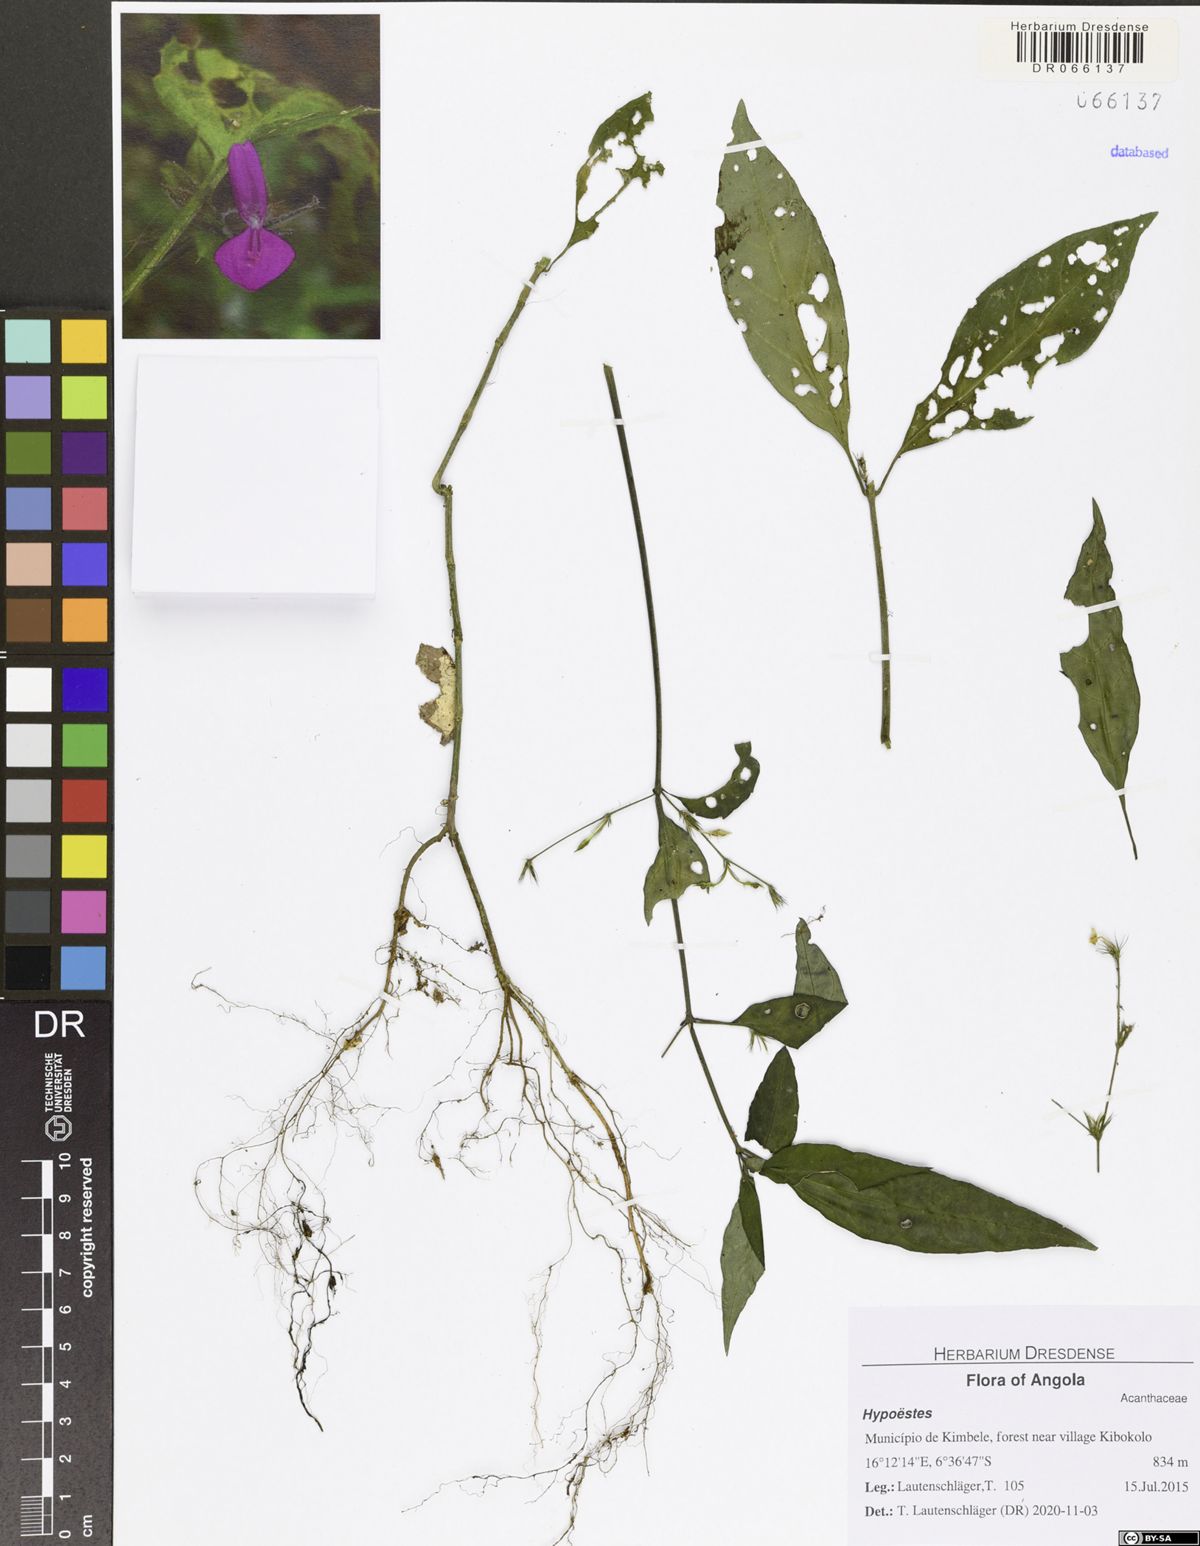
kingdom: Plantae
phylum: Tracheophyta
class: Magnoliopsida
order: Lamiales
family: Acanthaceae
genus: Rhinacanthus
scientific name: Rhinacanthus virens
